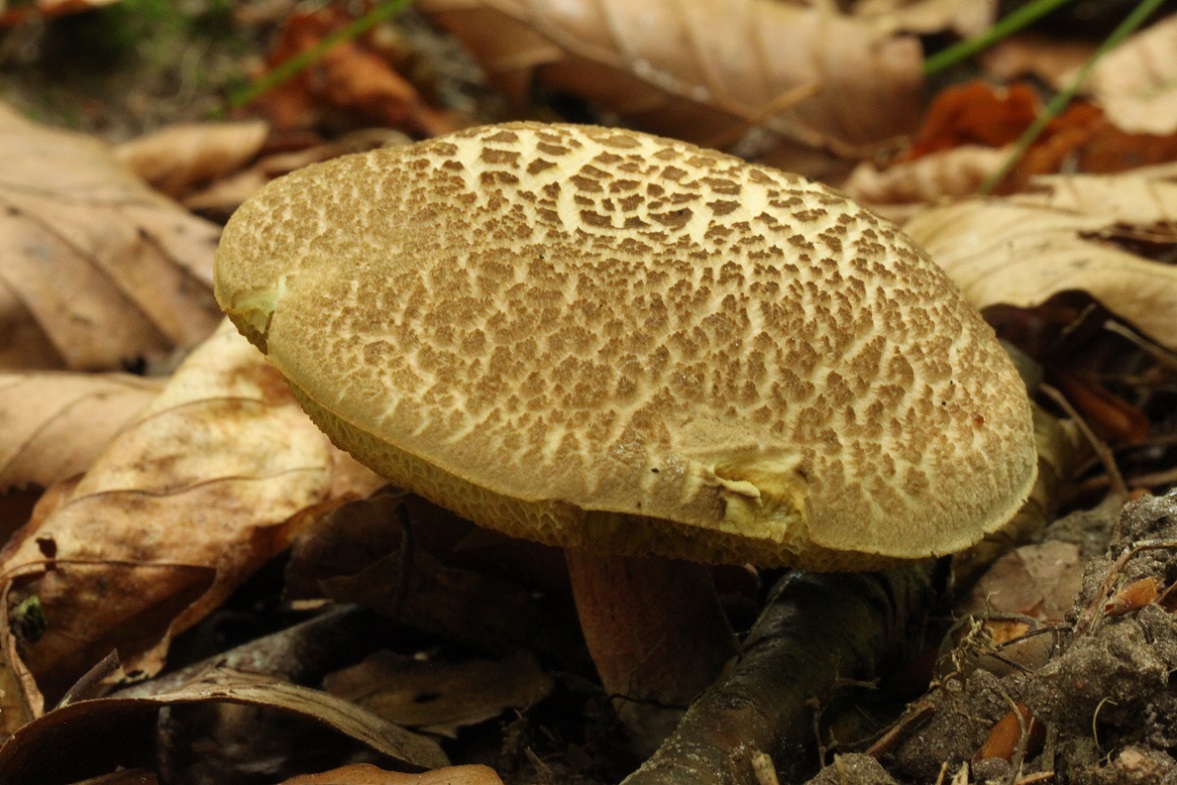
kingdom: Fungi
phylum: Basidiomycota
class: Agaricomycetes
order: Boletales
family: Boletaceae
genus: Xerocomellus
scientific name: Xerocomellus chrysenteron
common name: rødsprukken rørhat
